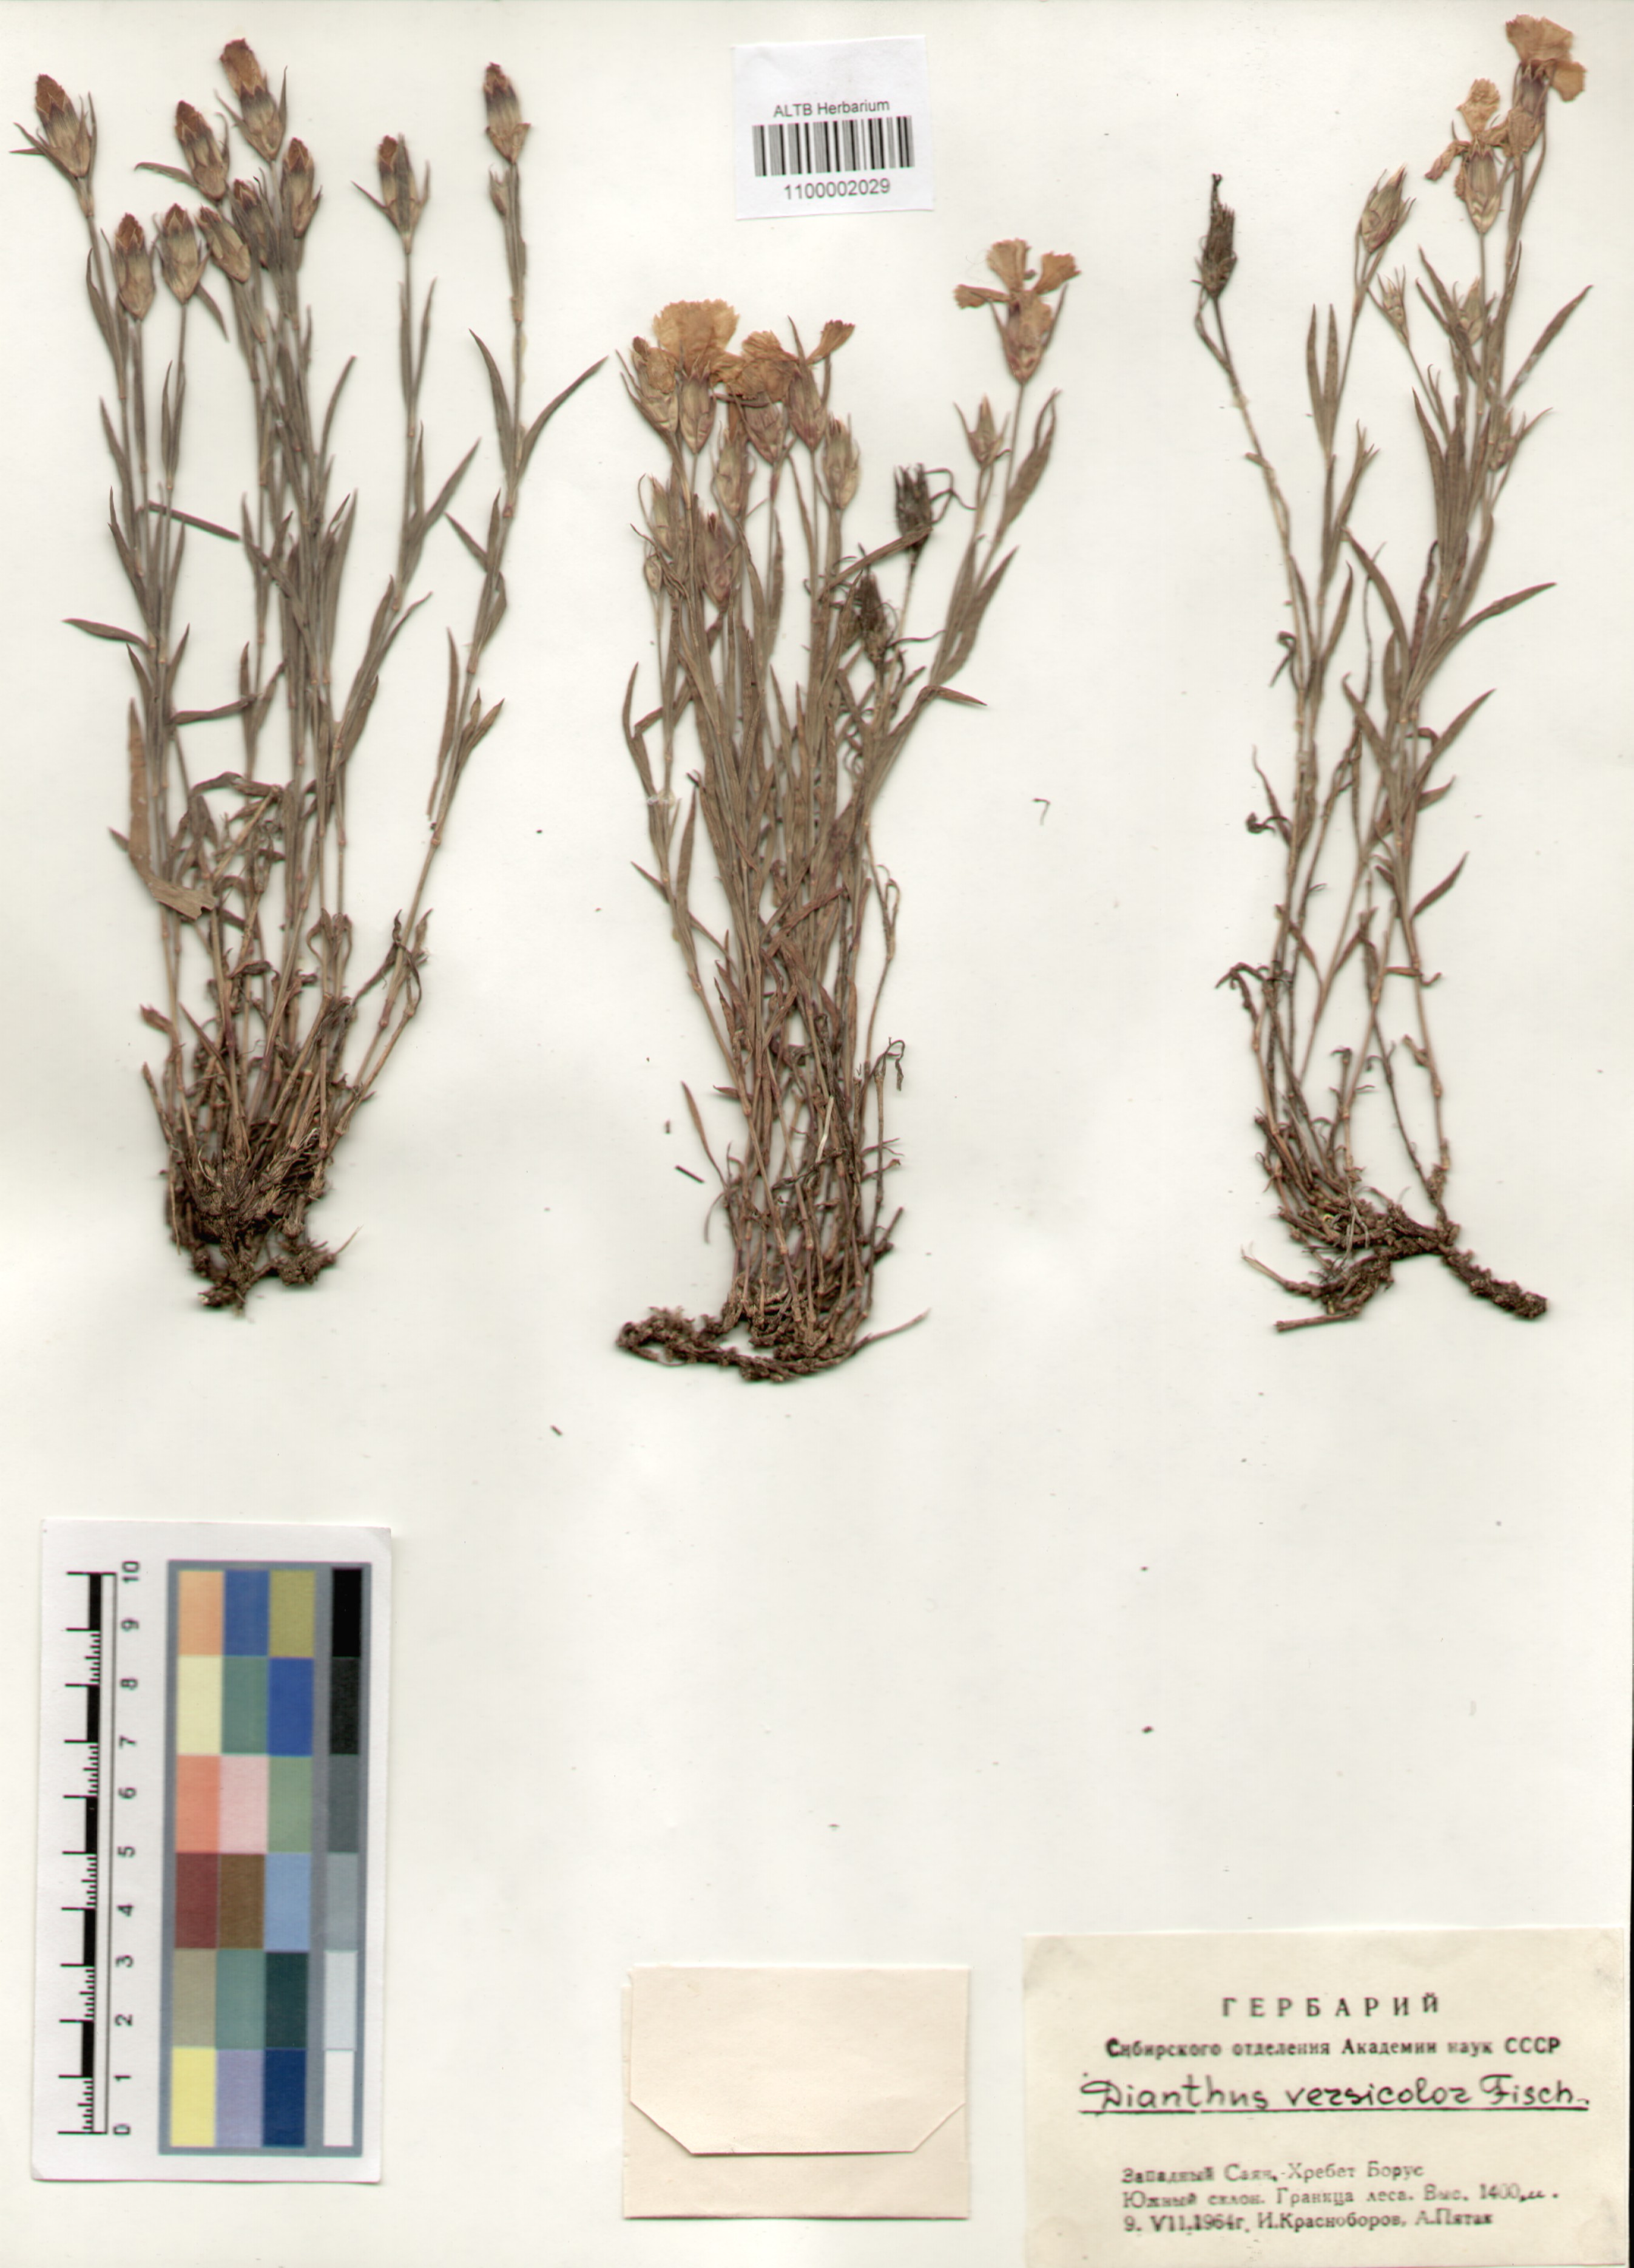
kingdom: Plantae
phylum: Tracheophyta
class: Magnoliopsida
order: Caryophyllales
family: Caryophyllaceae
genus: Dianthus
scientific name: Dianthus chinensis
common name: Rainbow pink
